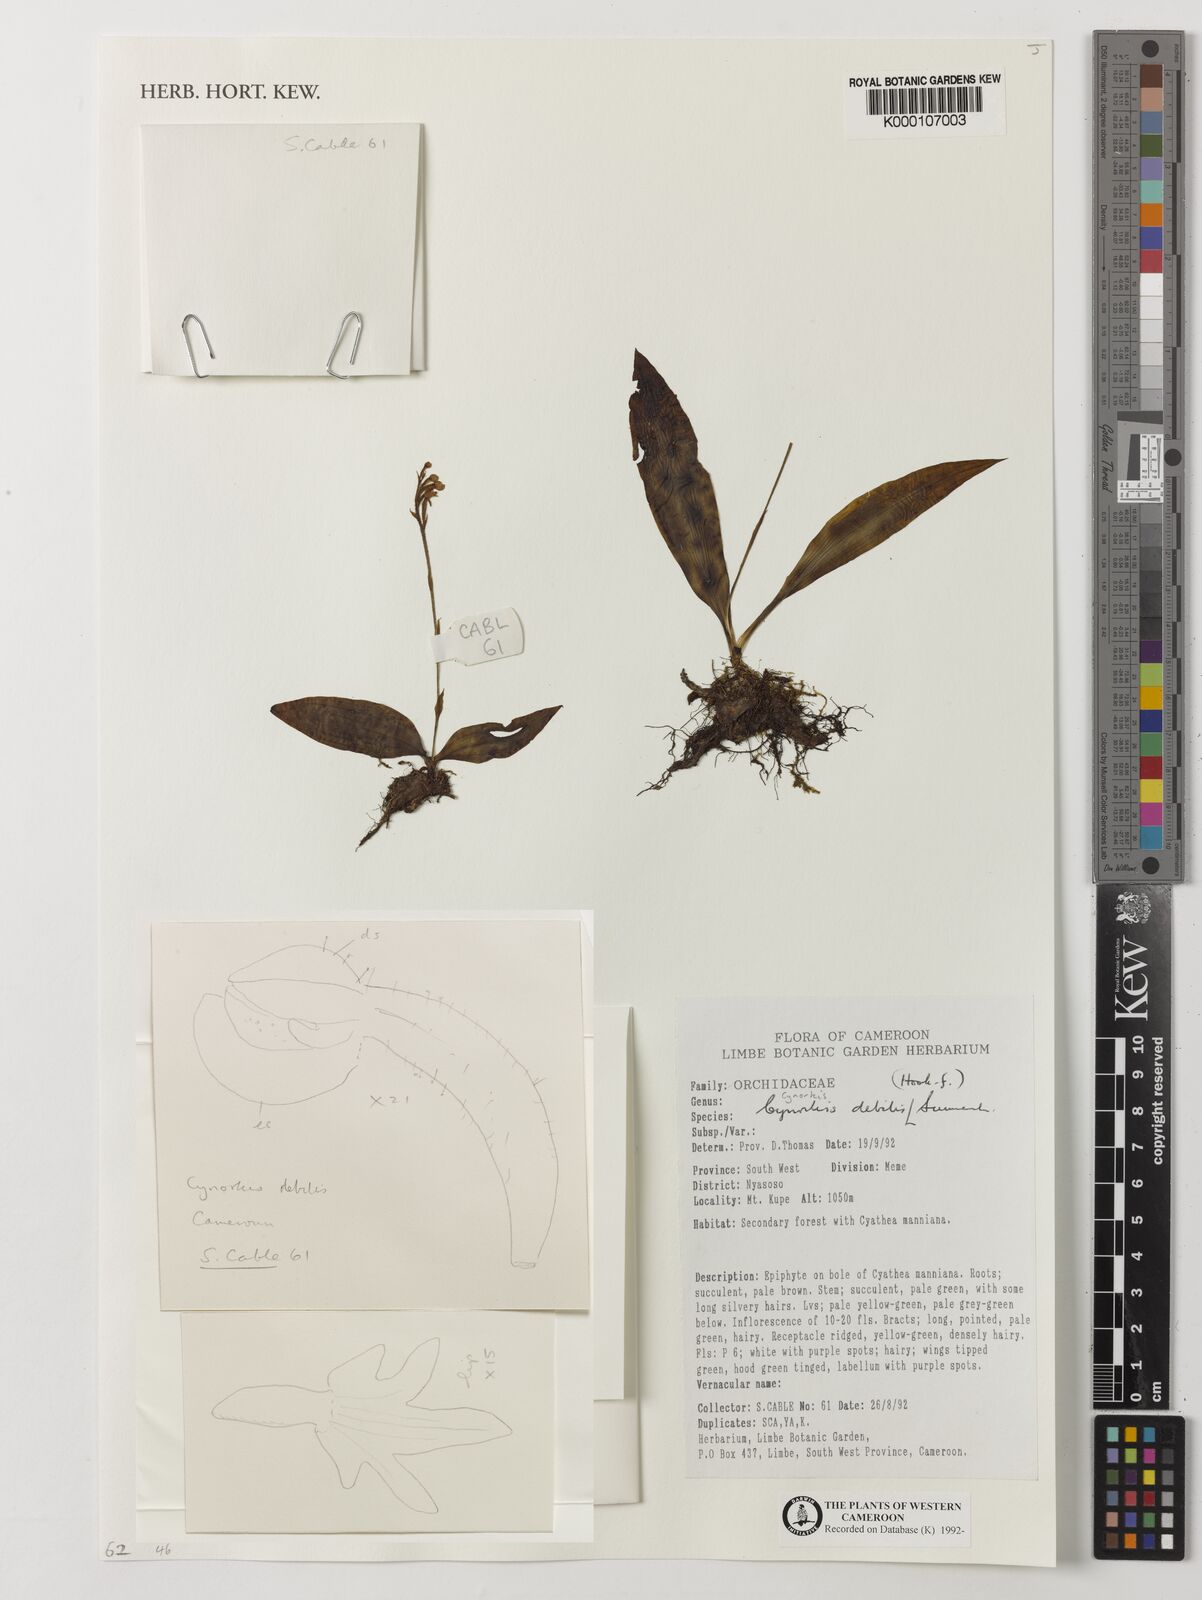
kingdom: Plantae
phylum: Tracheophyta
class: Liliopsida
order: Asparagales
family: Orchidaceae
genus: Cynorkis
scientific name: Cynorkis debilis
